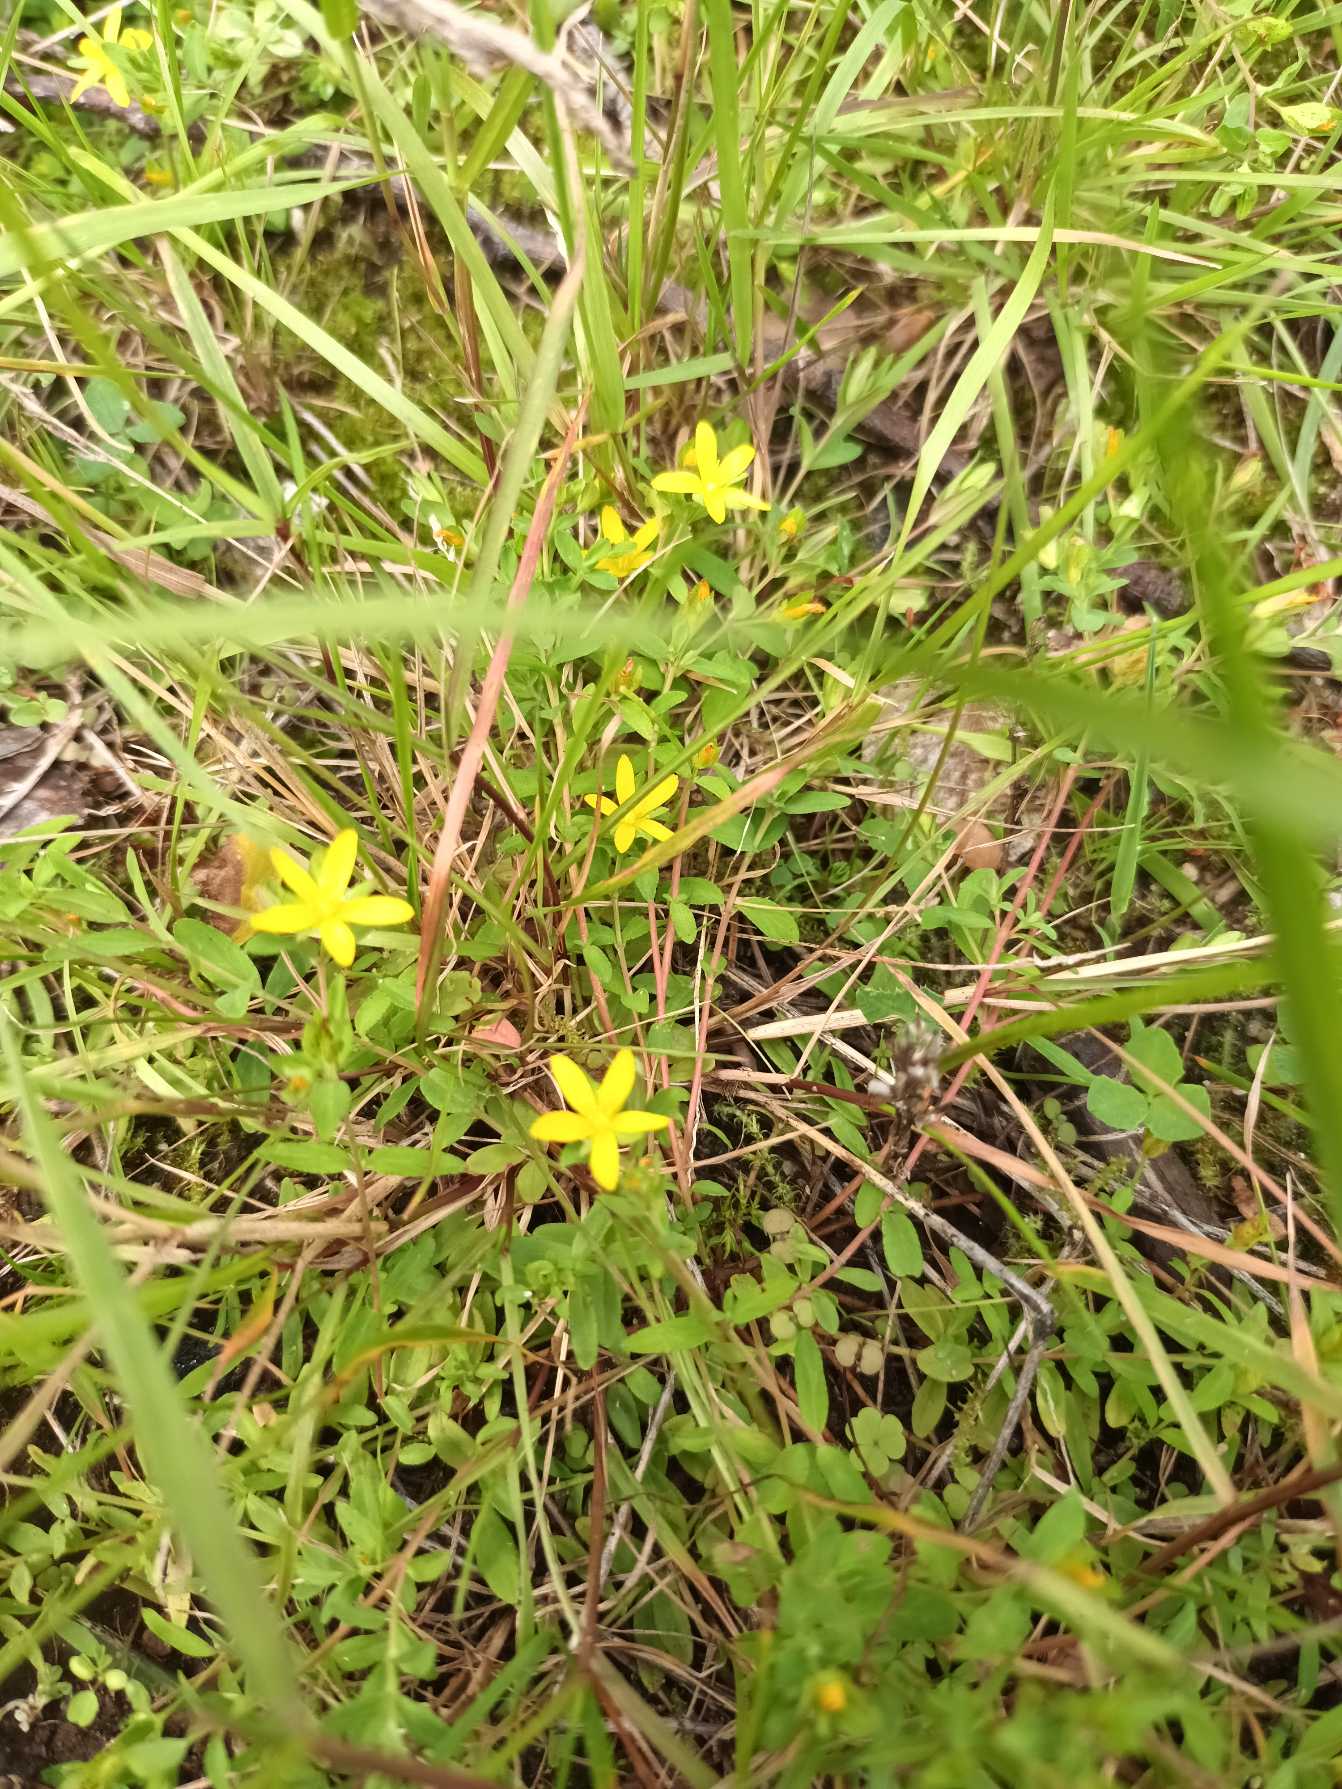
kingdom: Plantae
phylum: Tracheophyta
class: Magnoliopsida
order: Malpighiales
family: Hypericaceae
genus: Hypericum
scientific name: Hypericum humifusum
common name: Dværg-perikon
